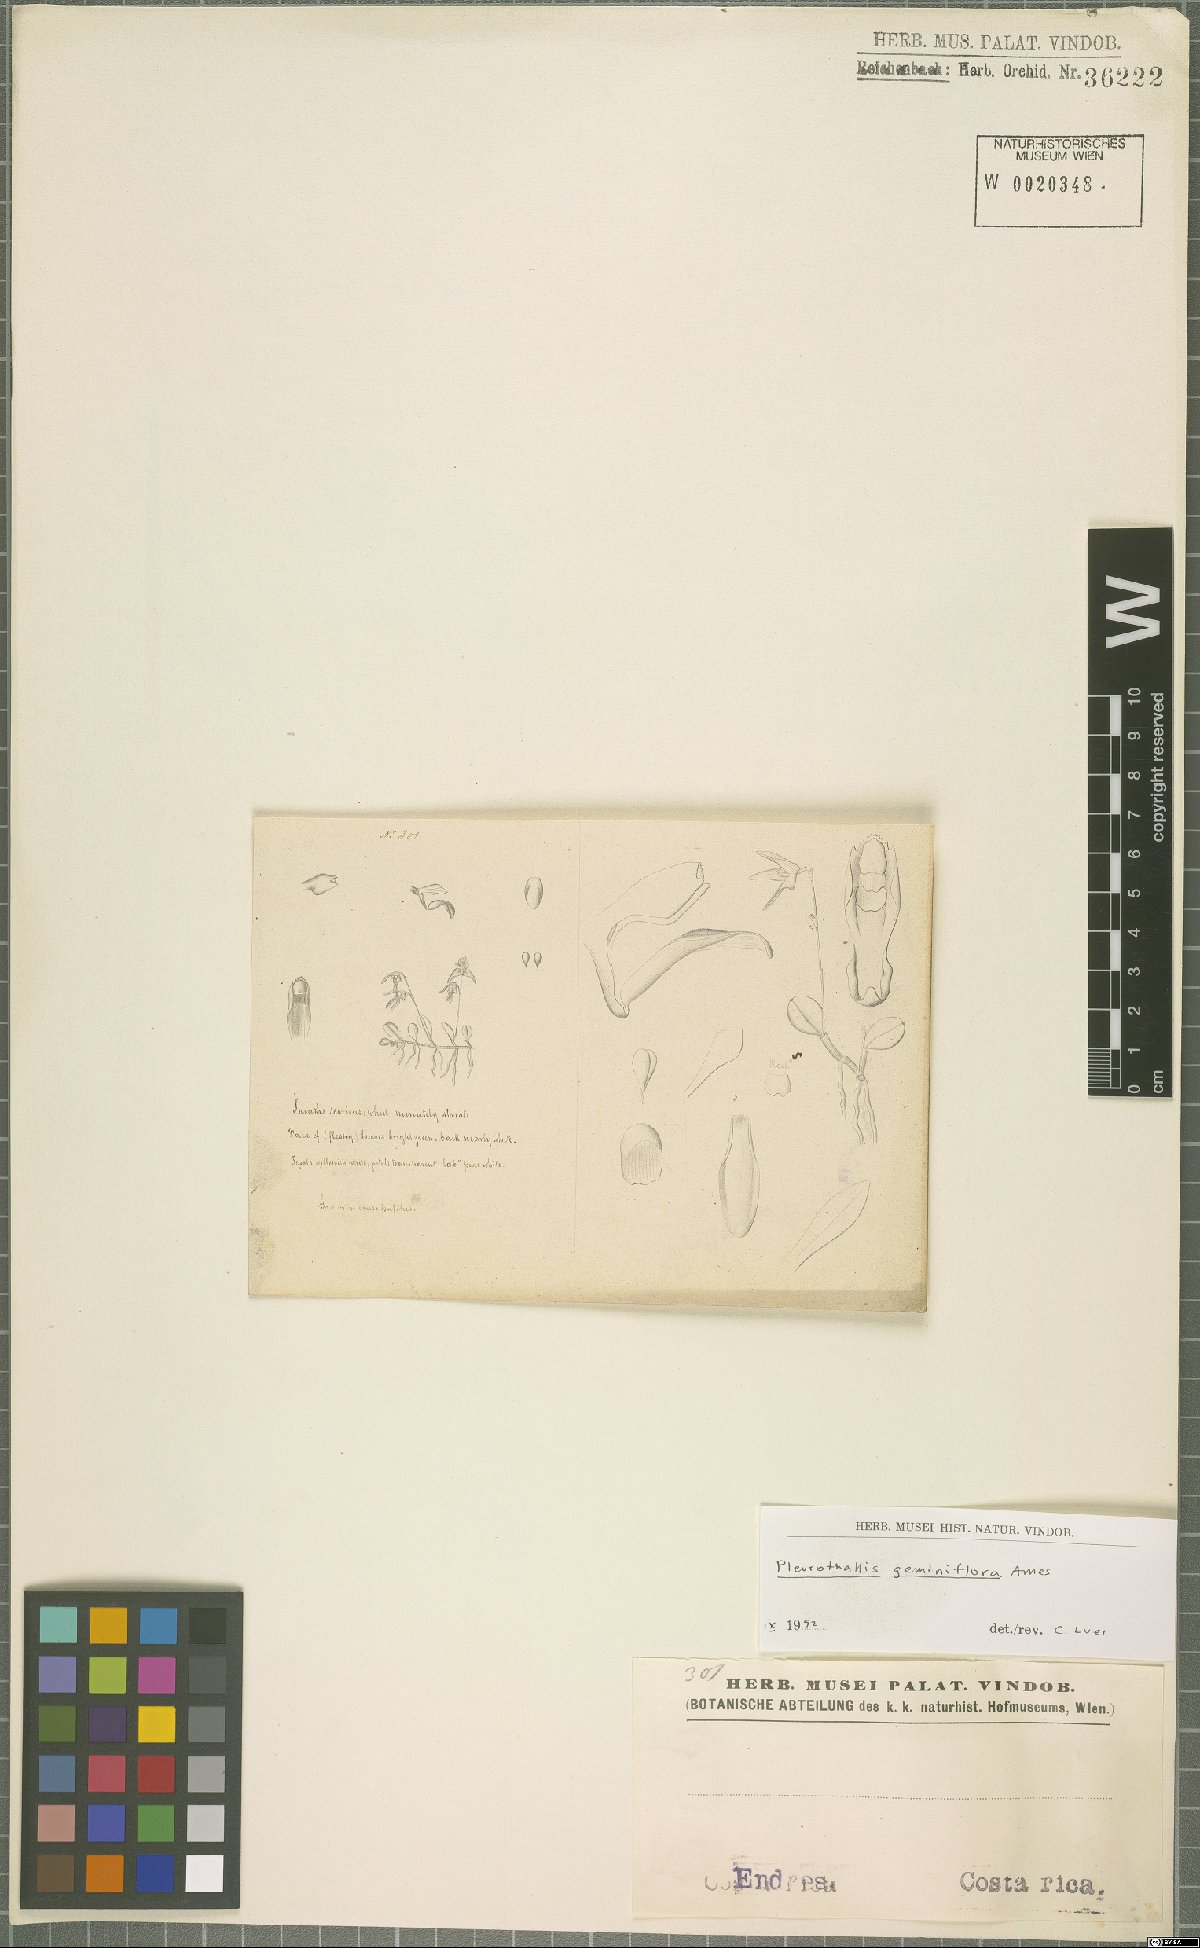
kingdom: Plantae
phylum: Tracheophyta
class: Liliopsida
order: Asparagales
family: Orchidaceae
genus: Specklinia
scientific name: Specklinia calyptrostele
